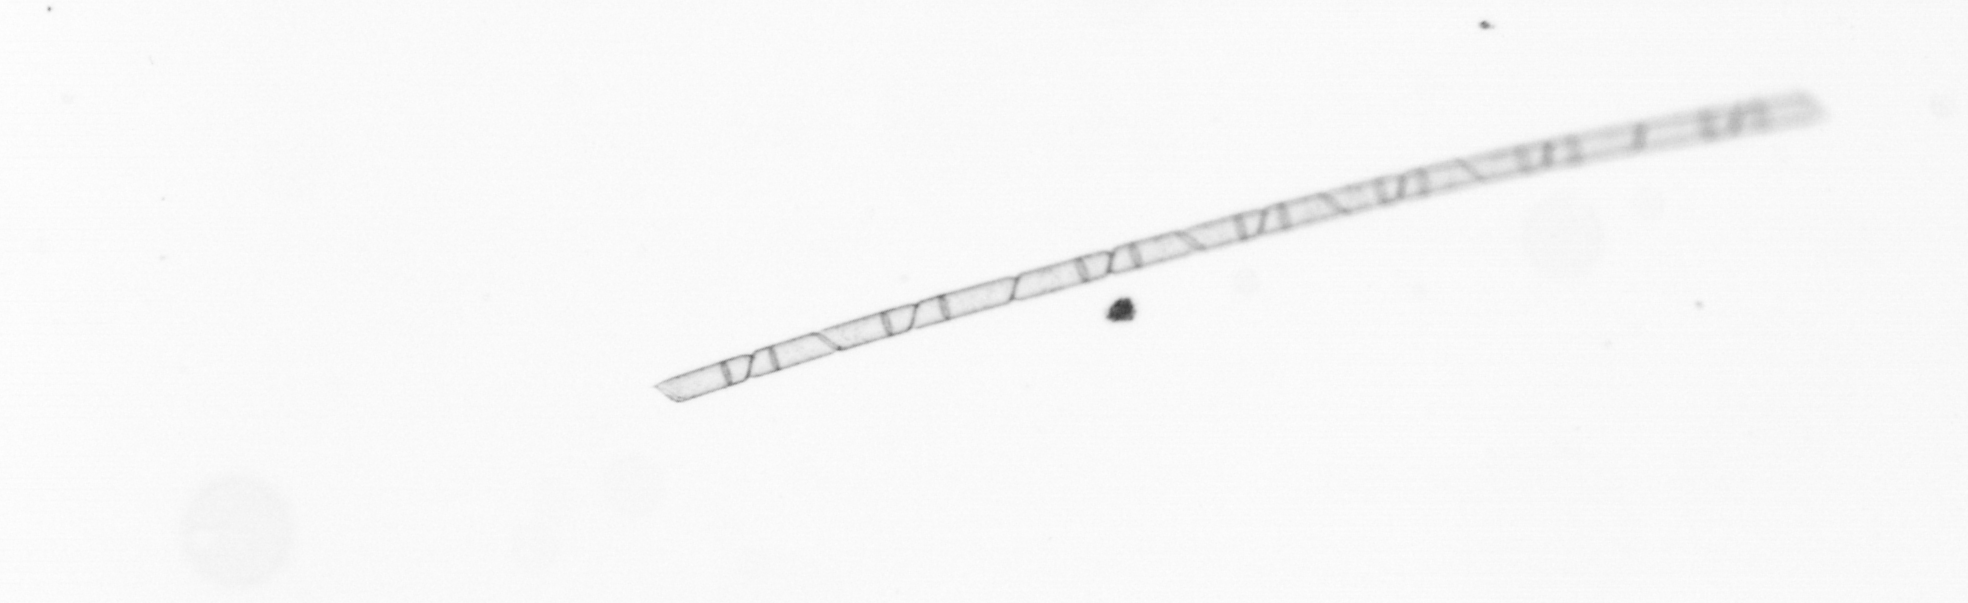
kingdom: Chromista
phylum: Ochrophyta
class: Bacillariophyceae
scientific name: Bacillariophyceae
